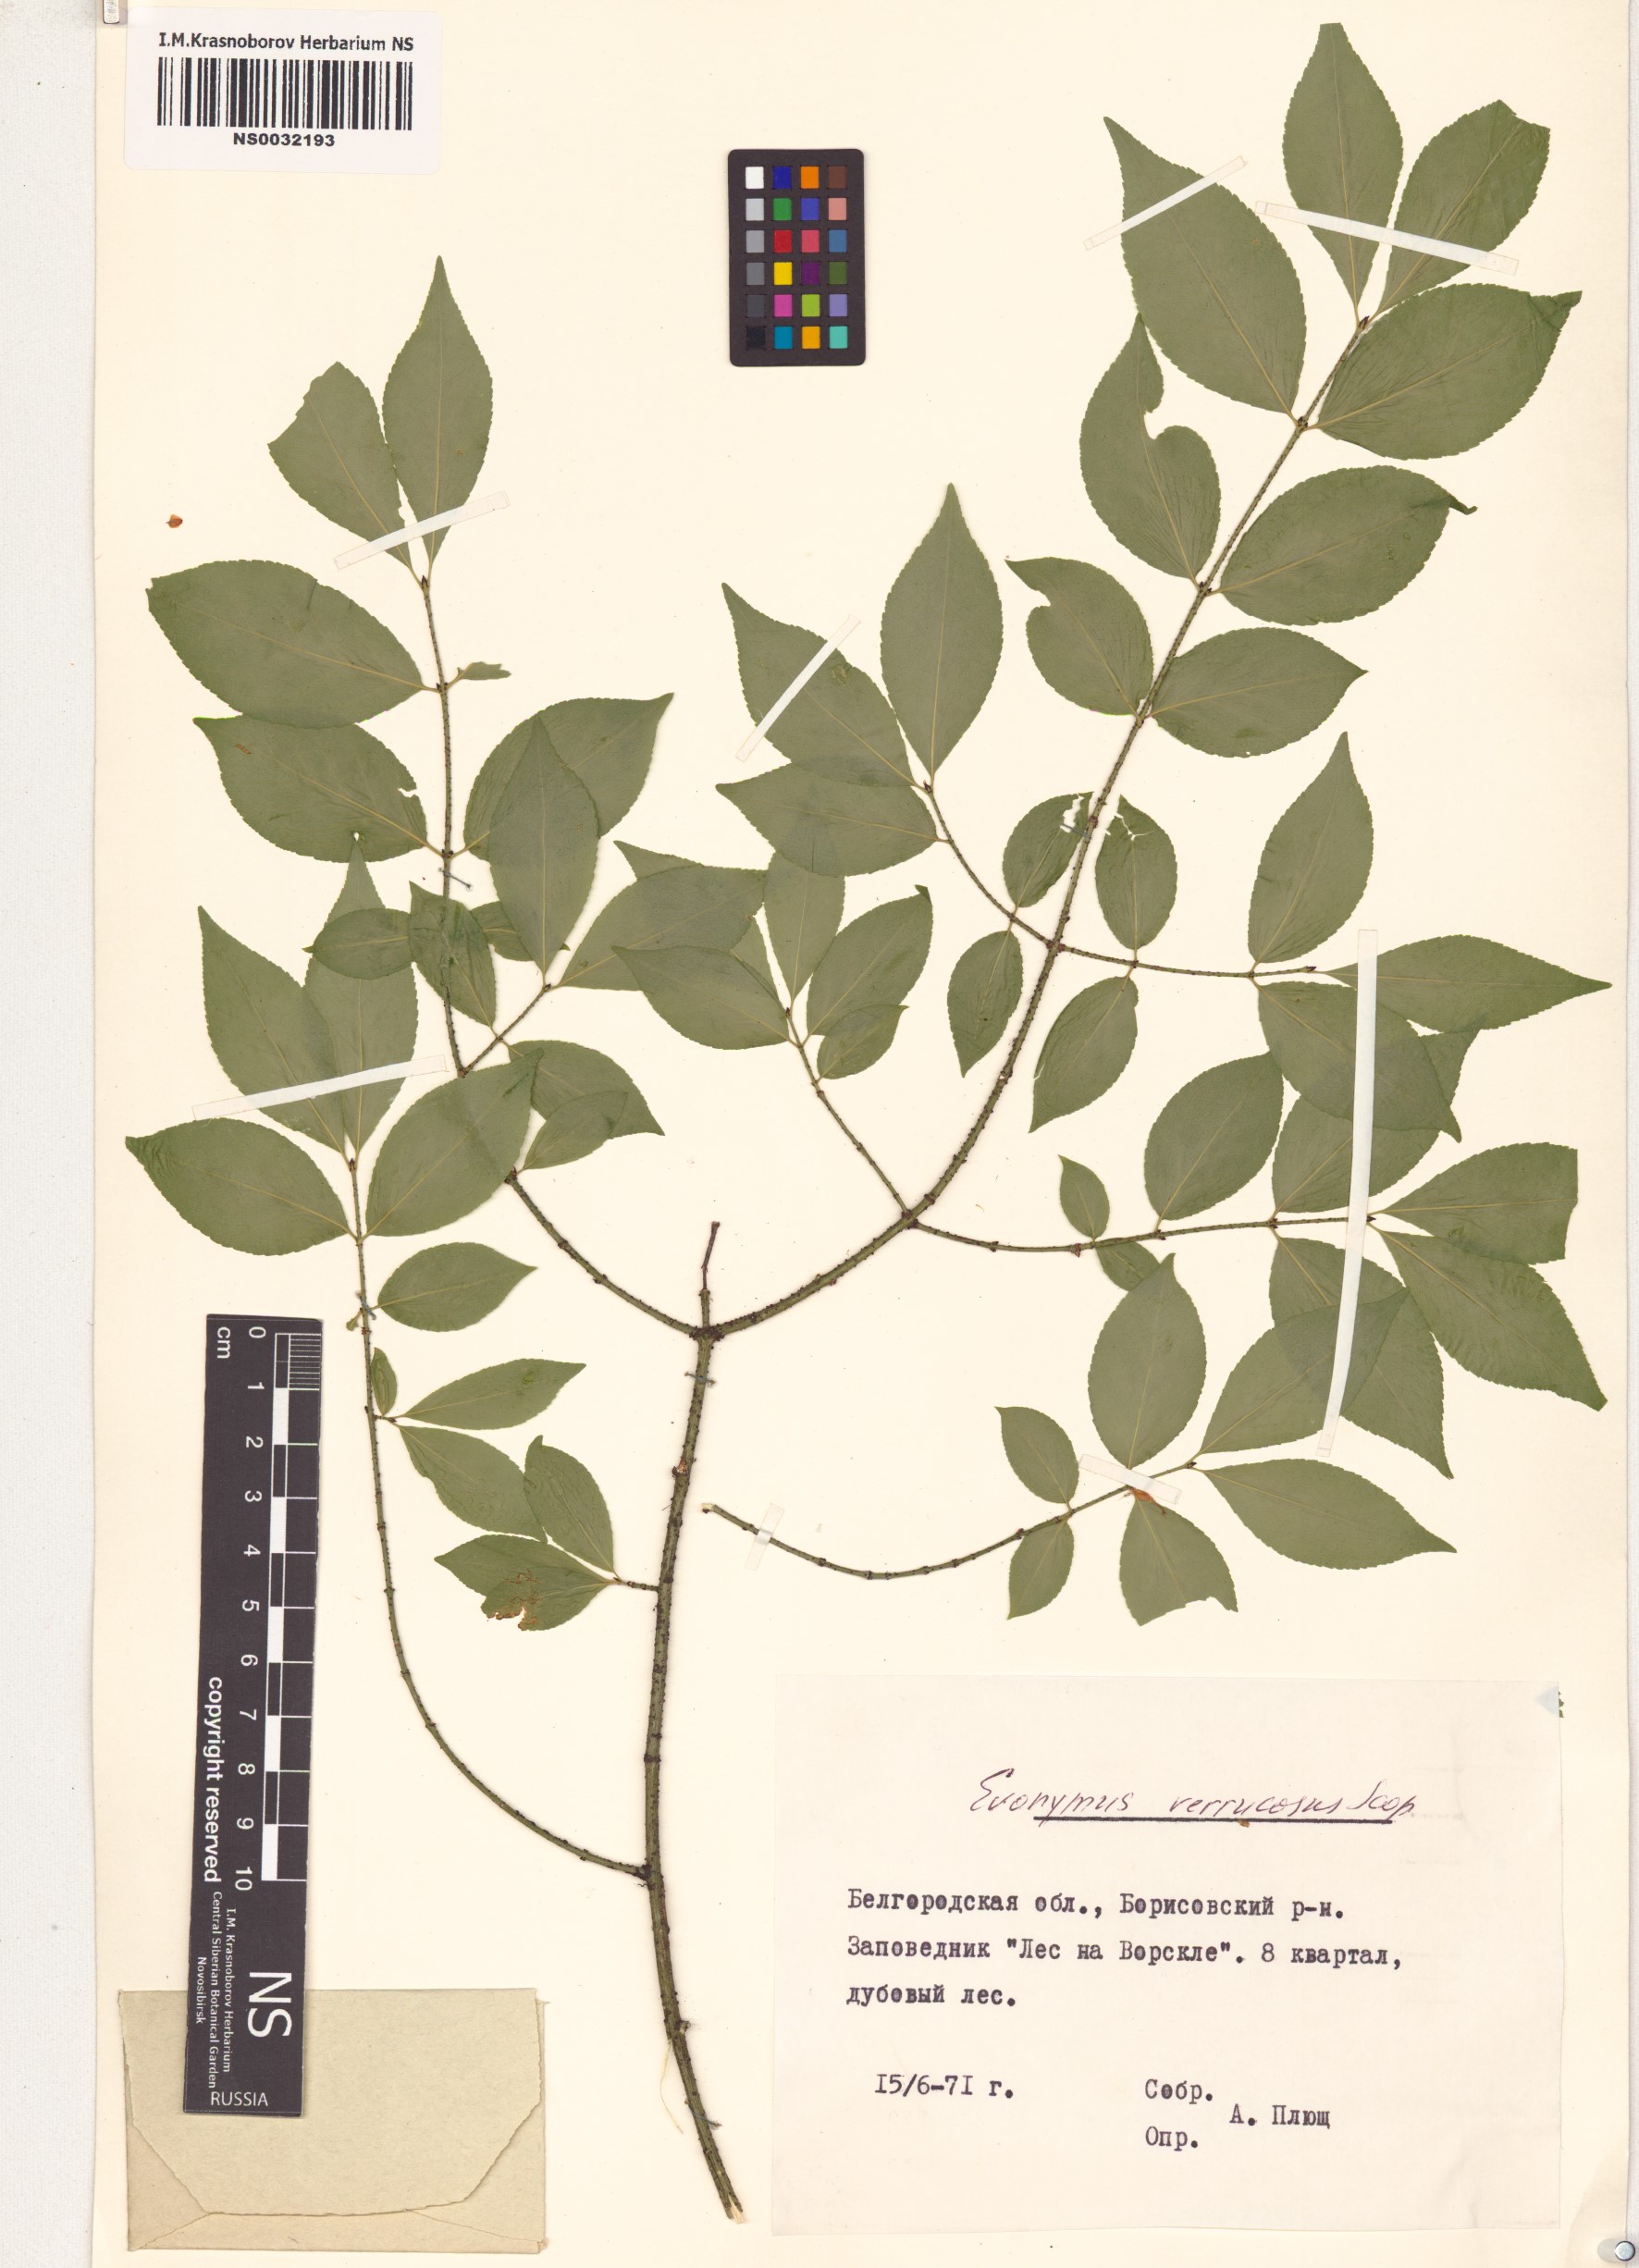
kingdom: Plantae
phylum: Tracheophyta
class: Magnoliopsida
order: Celastrales
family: Celastraceae
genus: Euonymus
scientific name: Euonymus verrucosus
